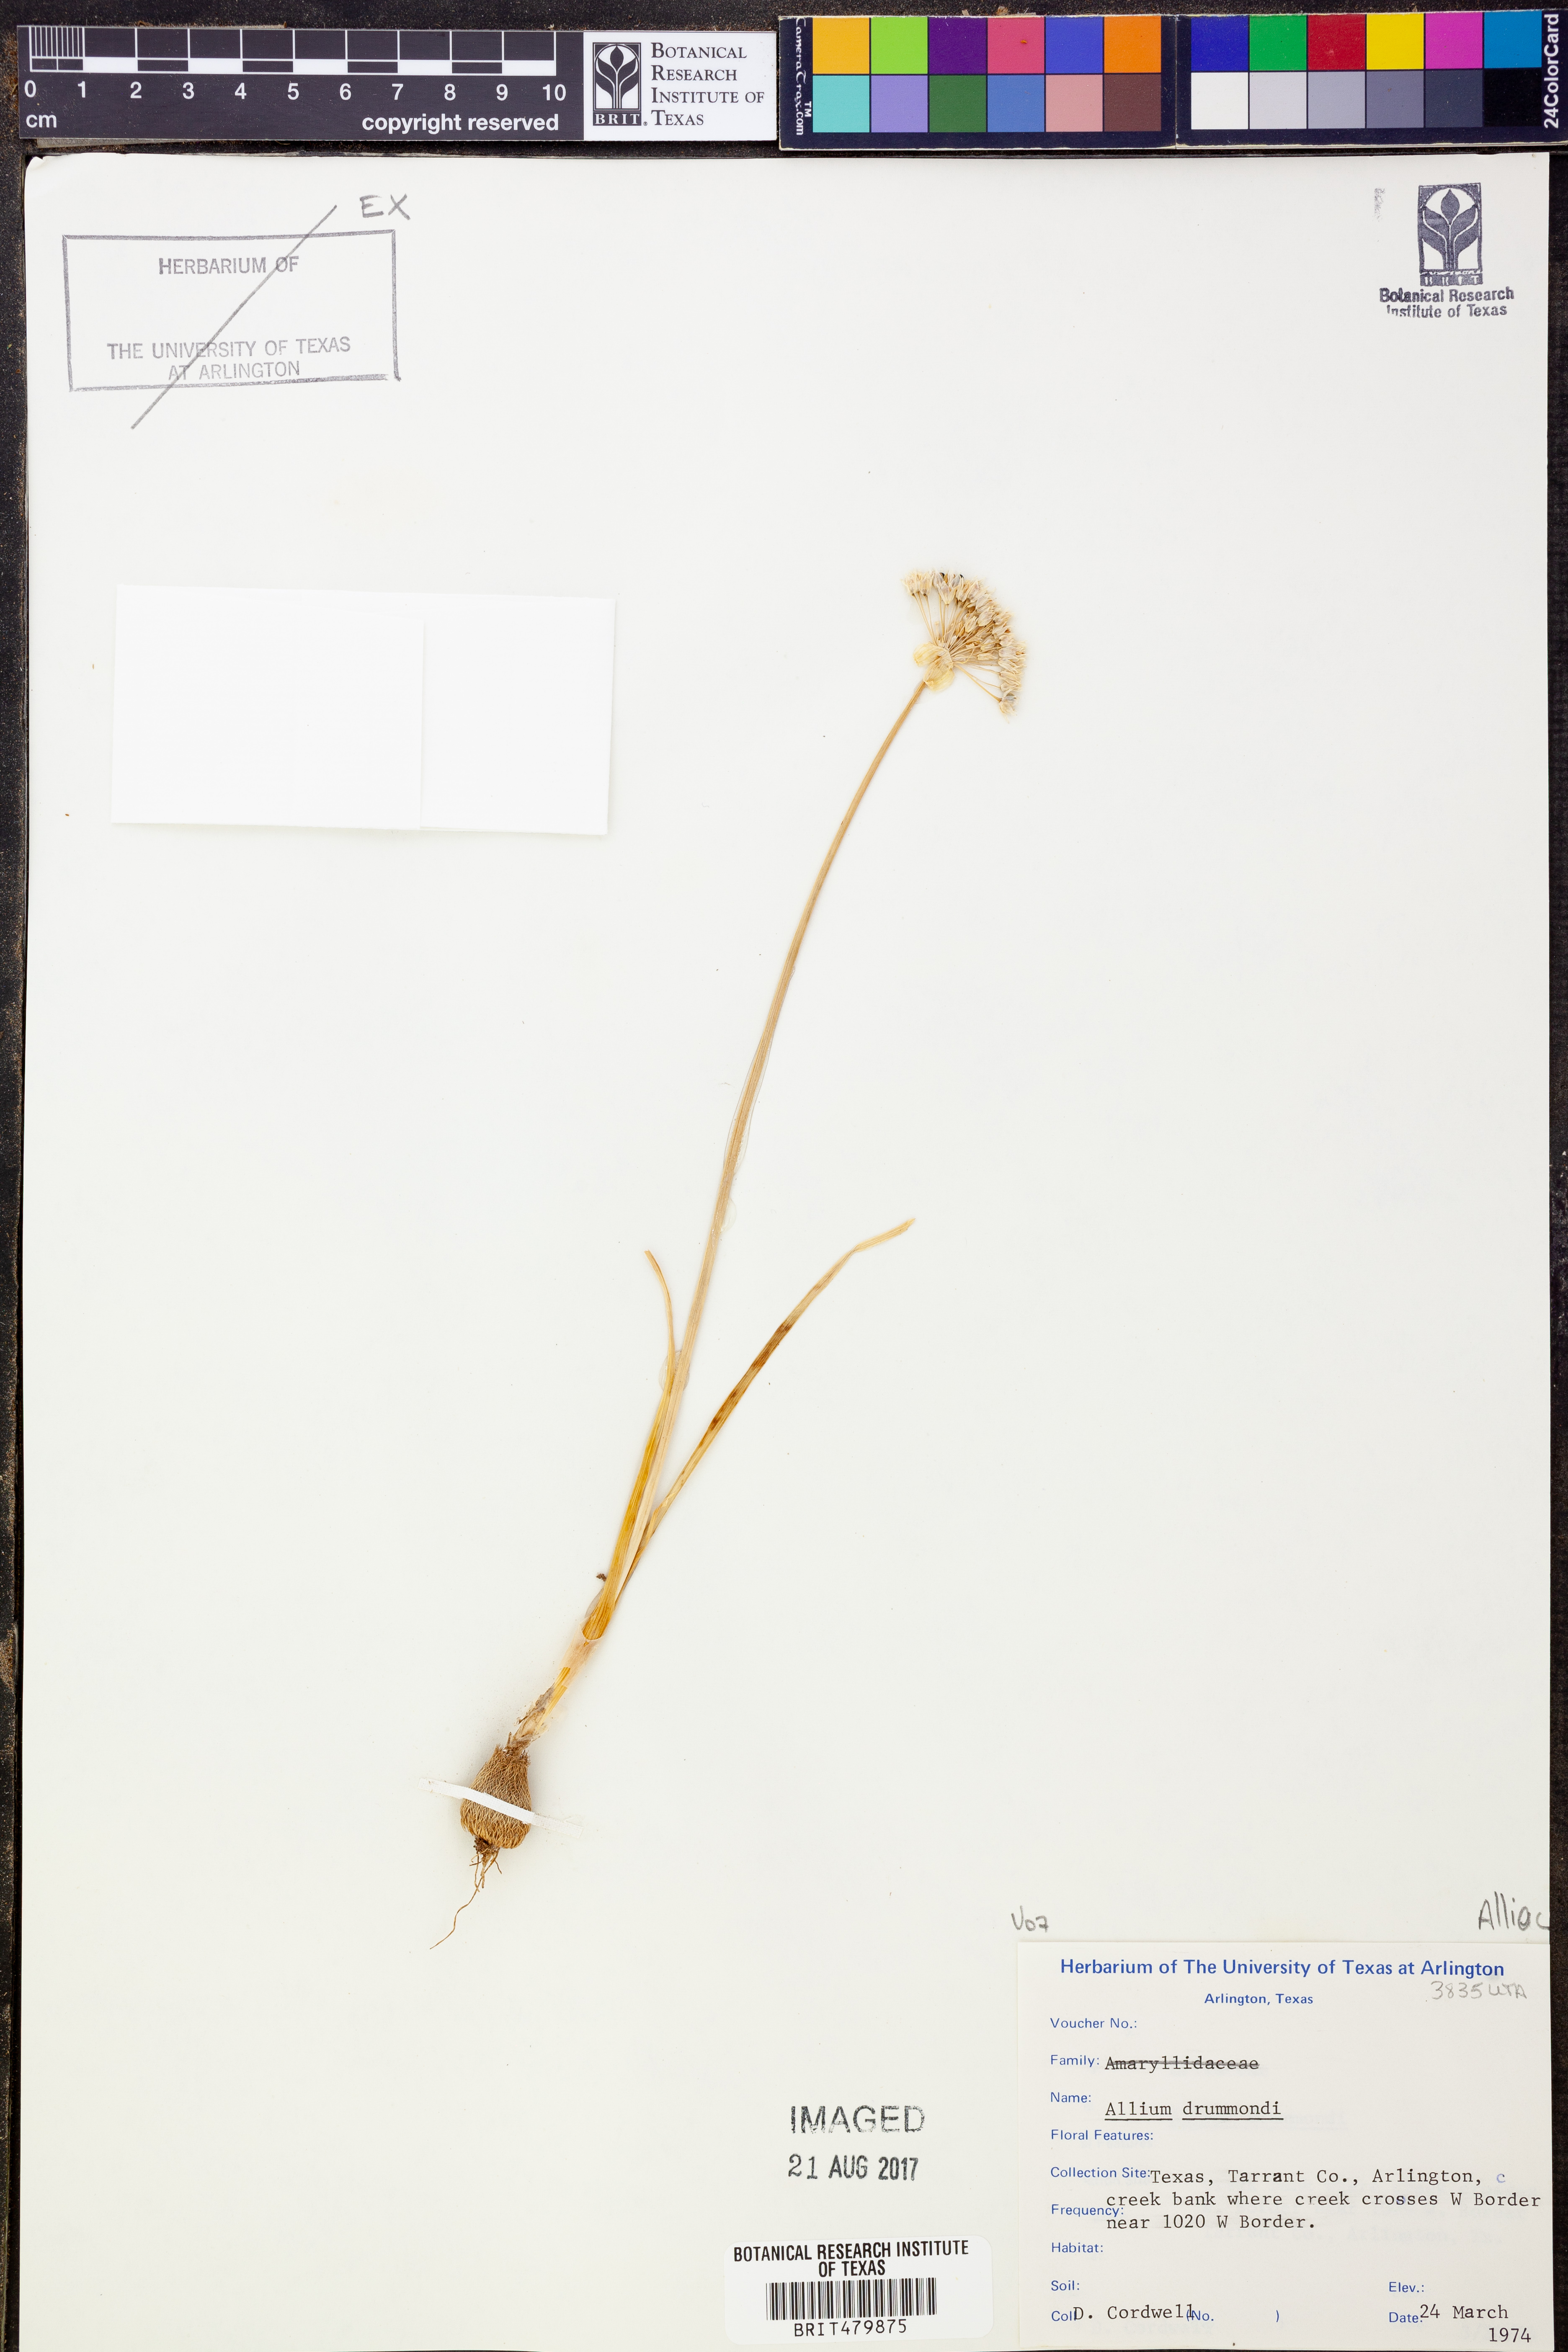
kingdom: Plantae
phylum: Tracheophyta
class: Liliopsida
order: Asparagales
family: Amaryllidaceae
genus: Allium
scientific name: Allium drummondii
